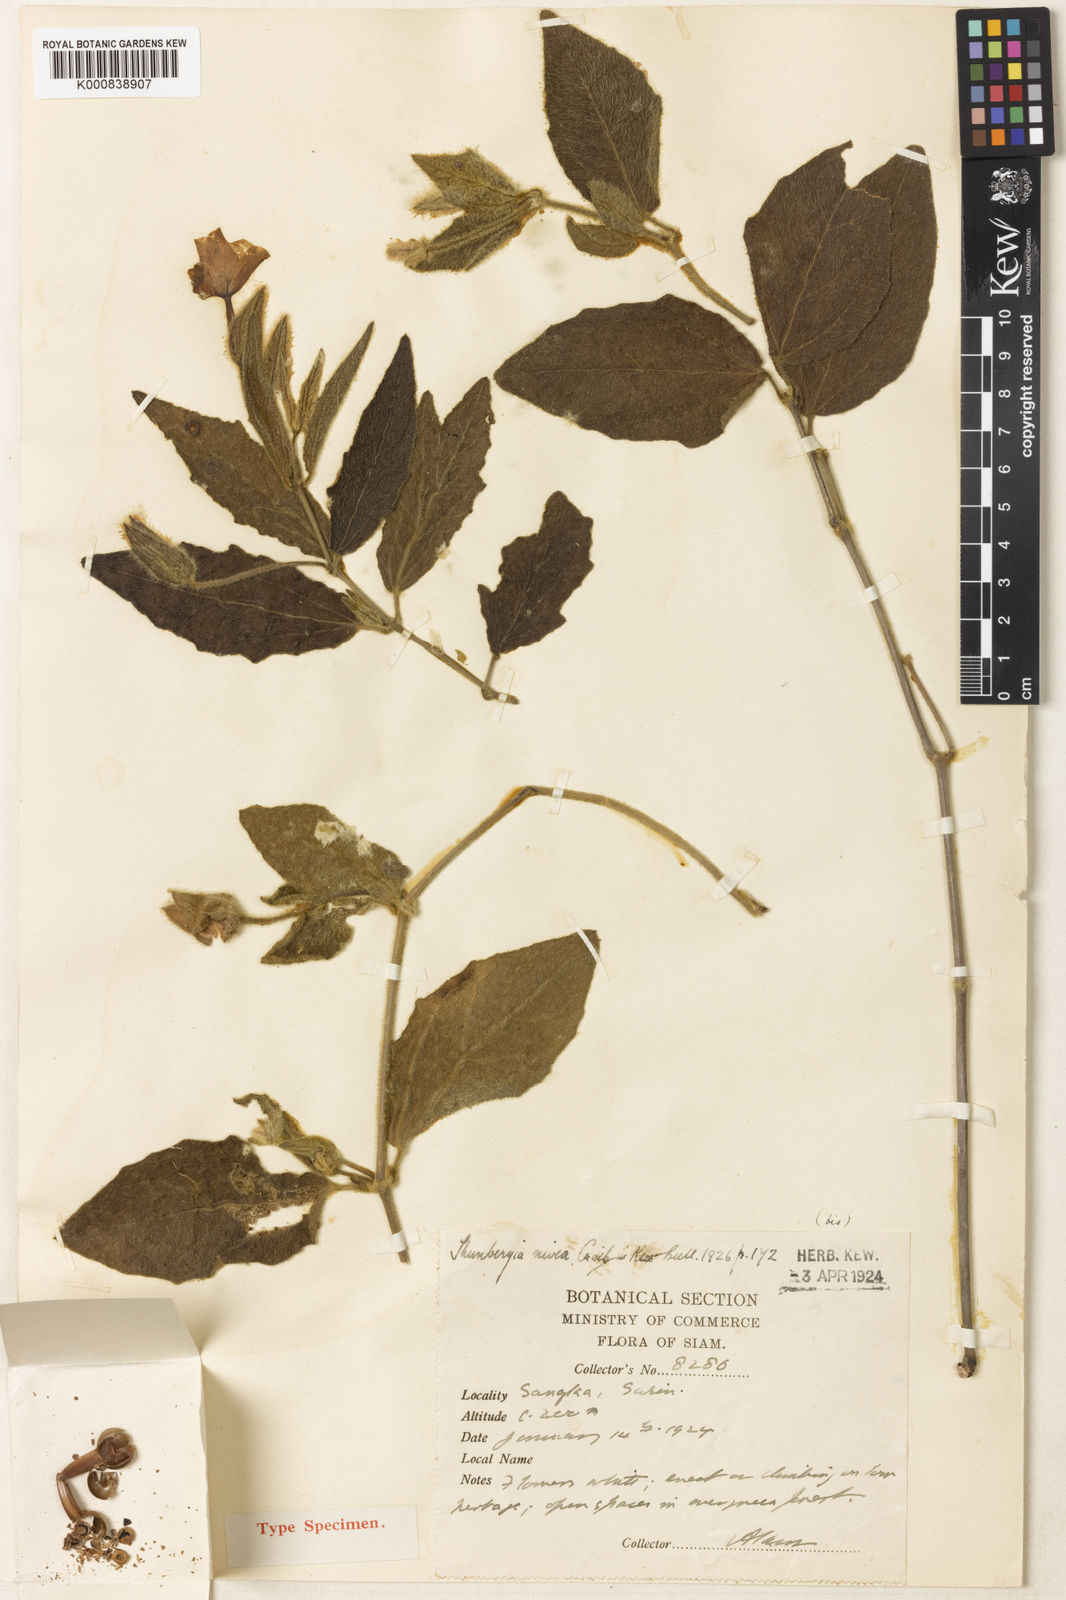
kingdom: Plantae
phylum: Tracheophyta
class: Magnoliopsida
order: Lamiales
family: Acanthaceae
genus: Thunbergia
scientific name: Thunbergia nivea
